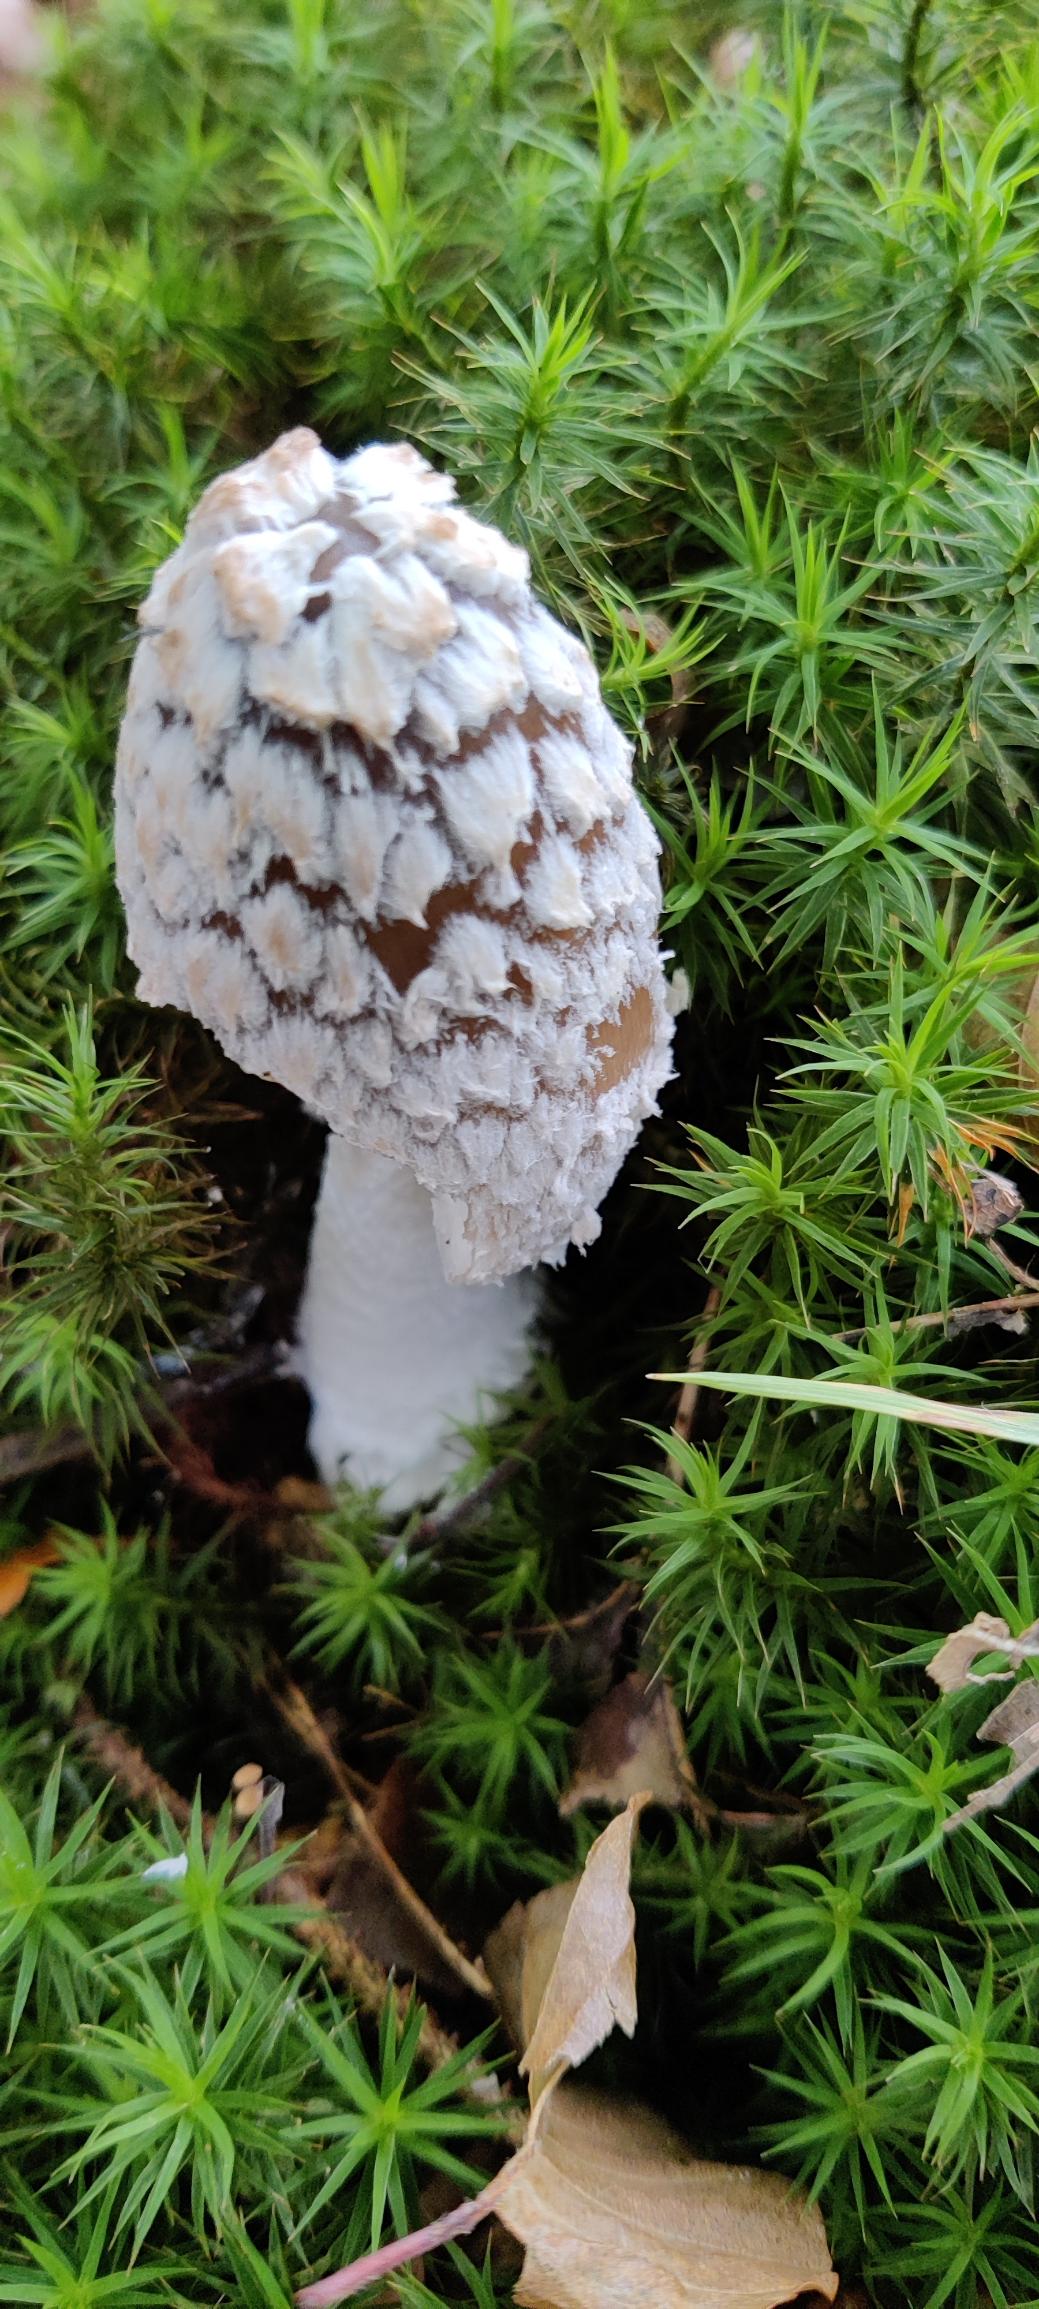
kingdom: Fungi
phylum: Basidiomycota
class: Agaricomycetes
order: Agaricales
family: Psathyrellaceae
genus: Coprinopsis
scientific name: Coprinopsis picacea
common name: Skade-blækhat
